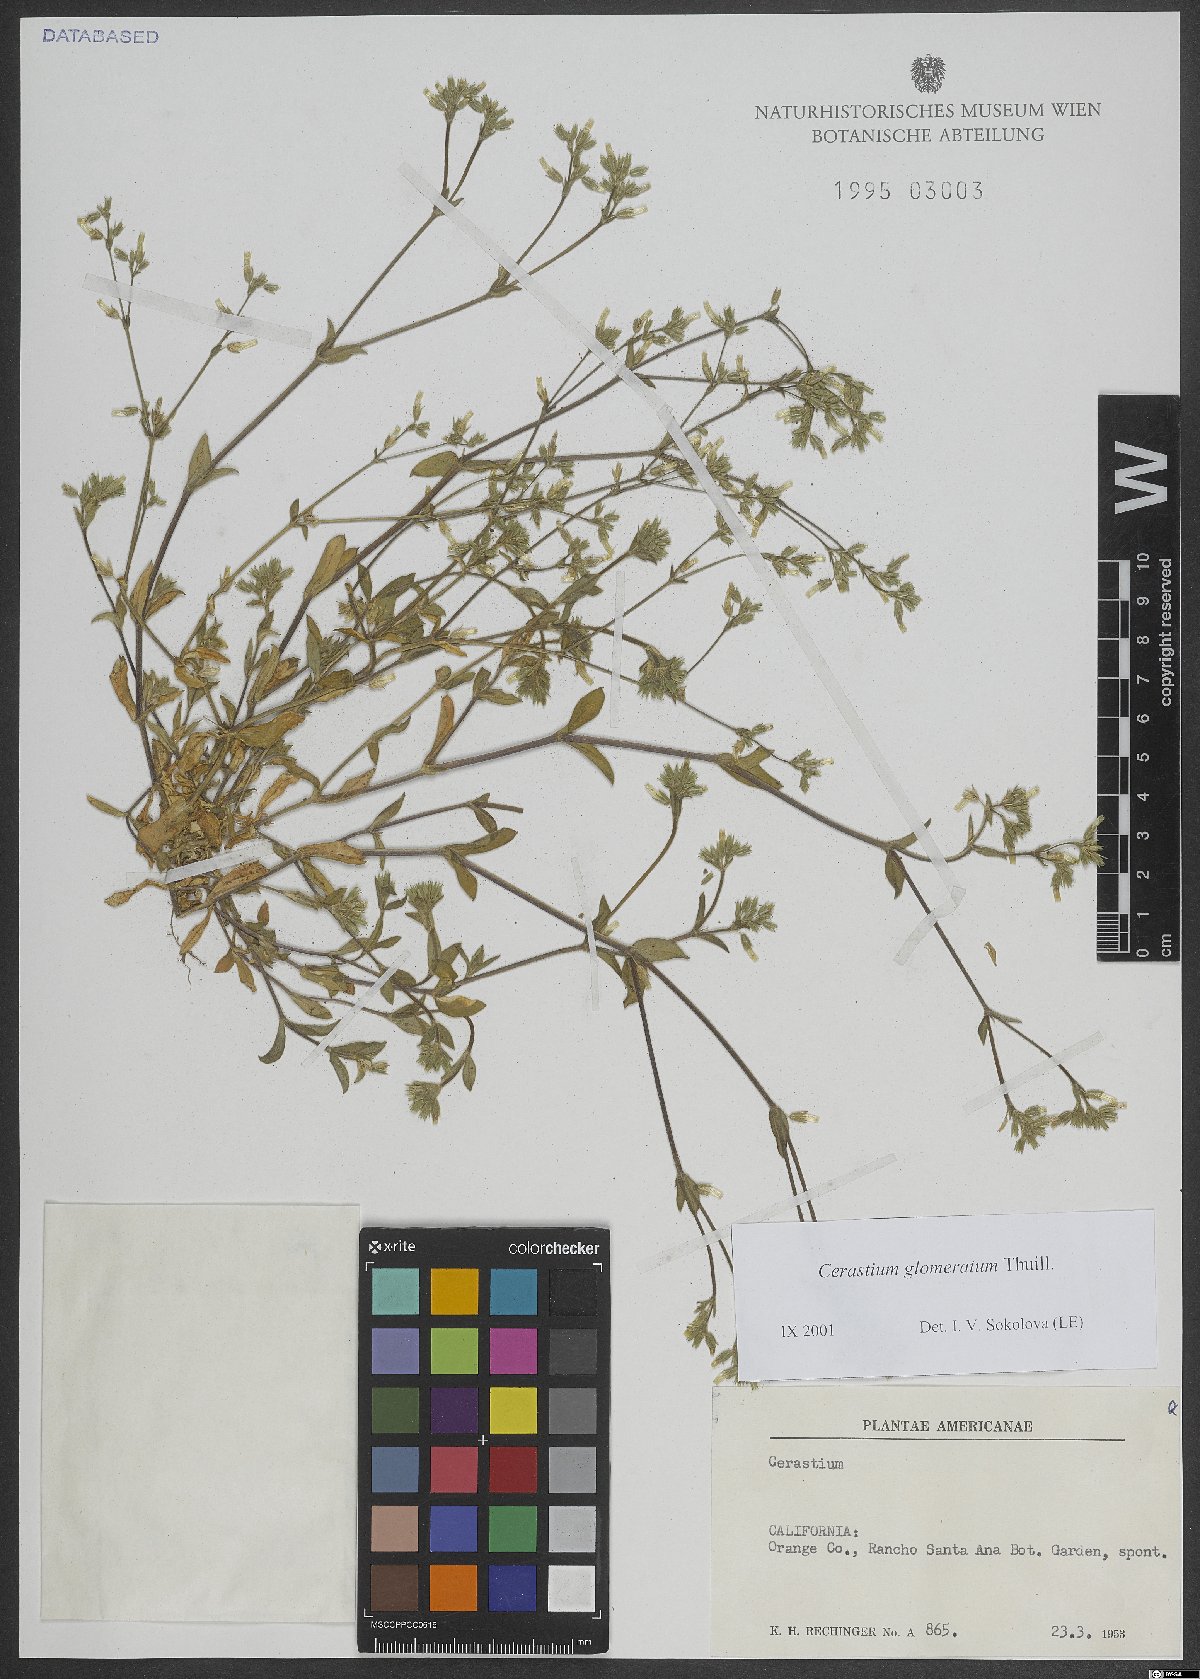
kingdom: Plantae
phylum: Tracheophyta
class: Magnoliopsida
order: Caryophyllales
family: Caryophyllaceae
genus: Cerastium
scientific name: Cerastium glomeratum
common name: Sticky chickweed
